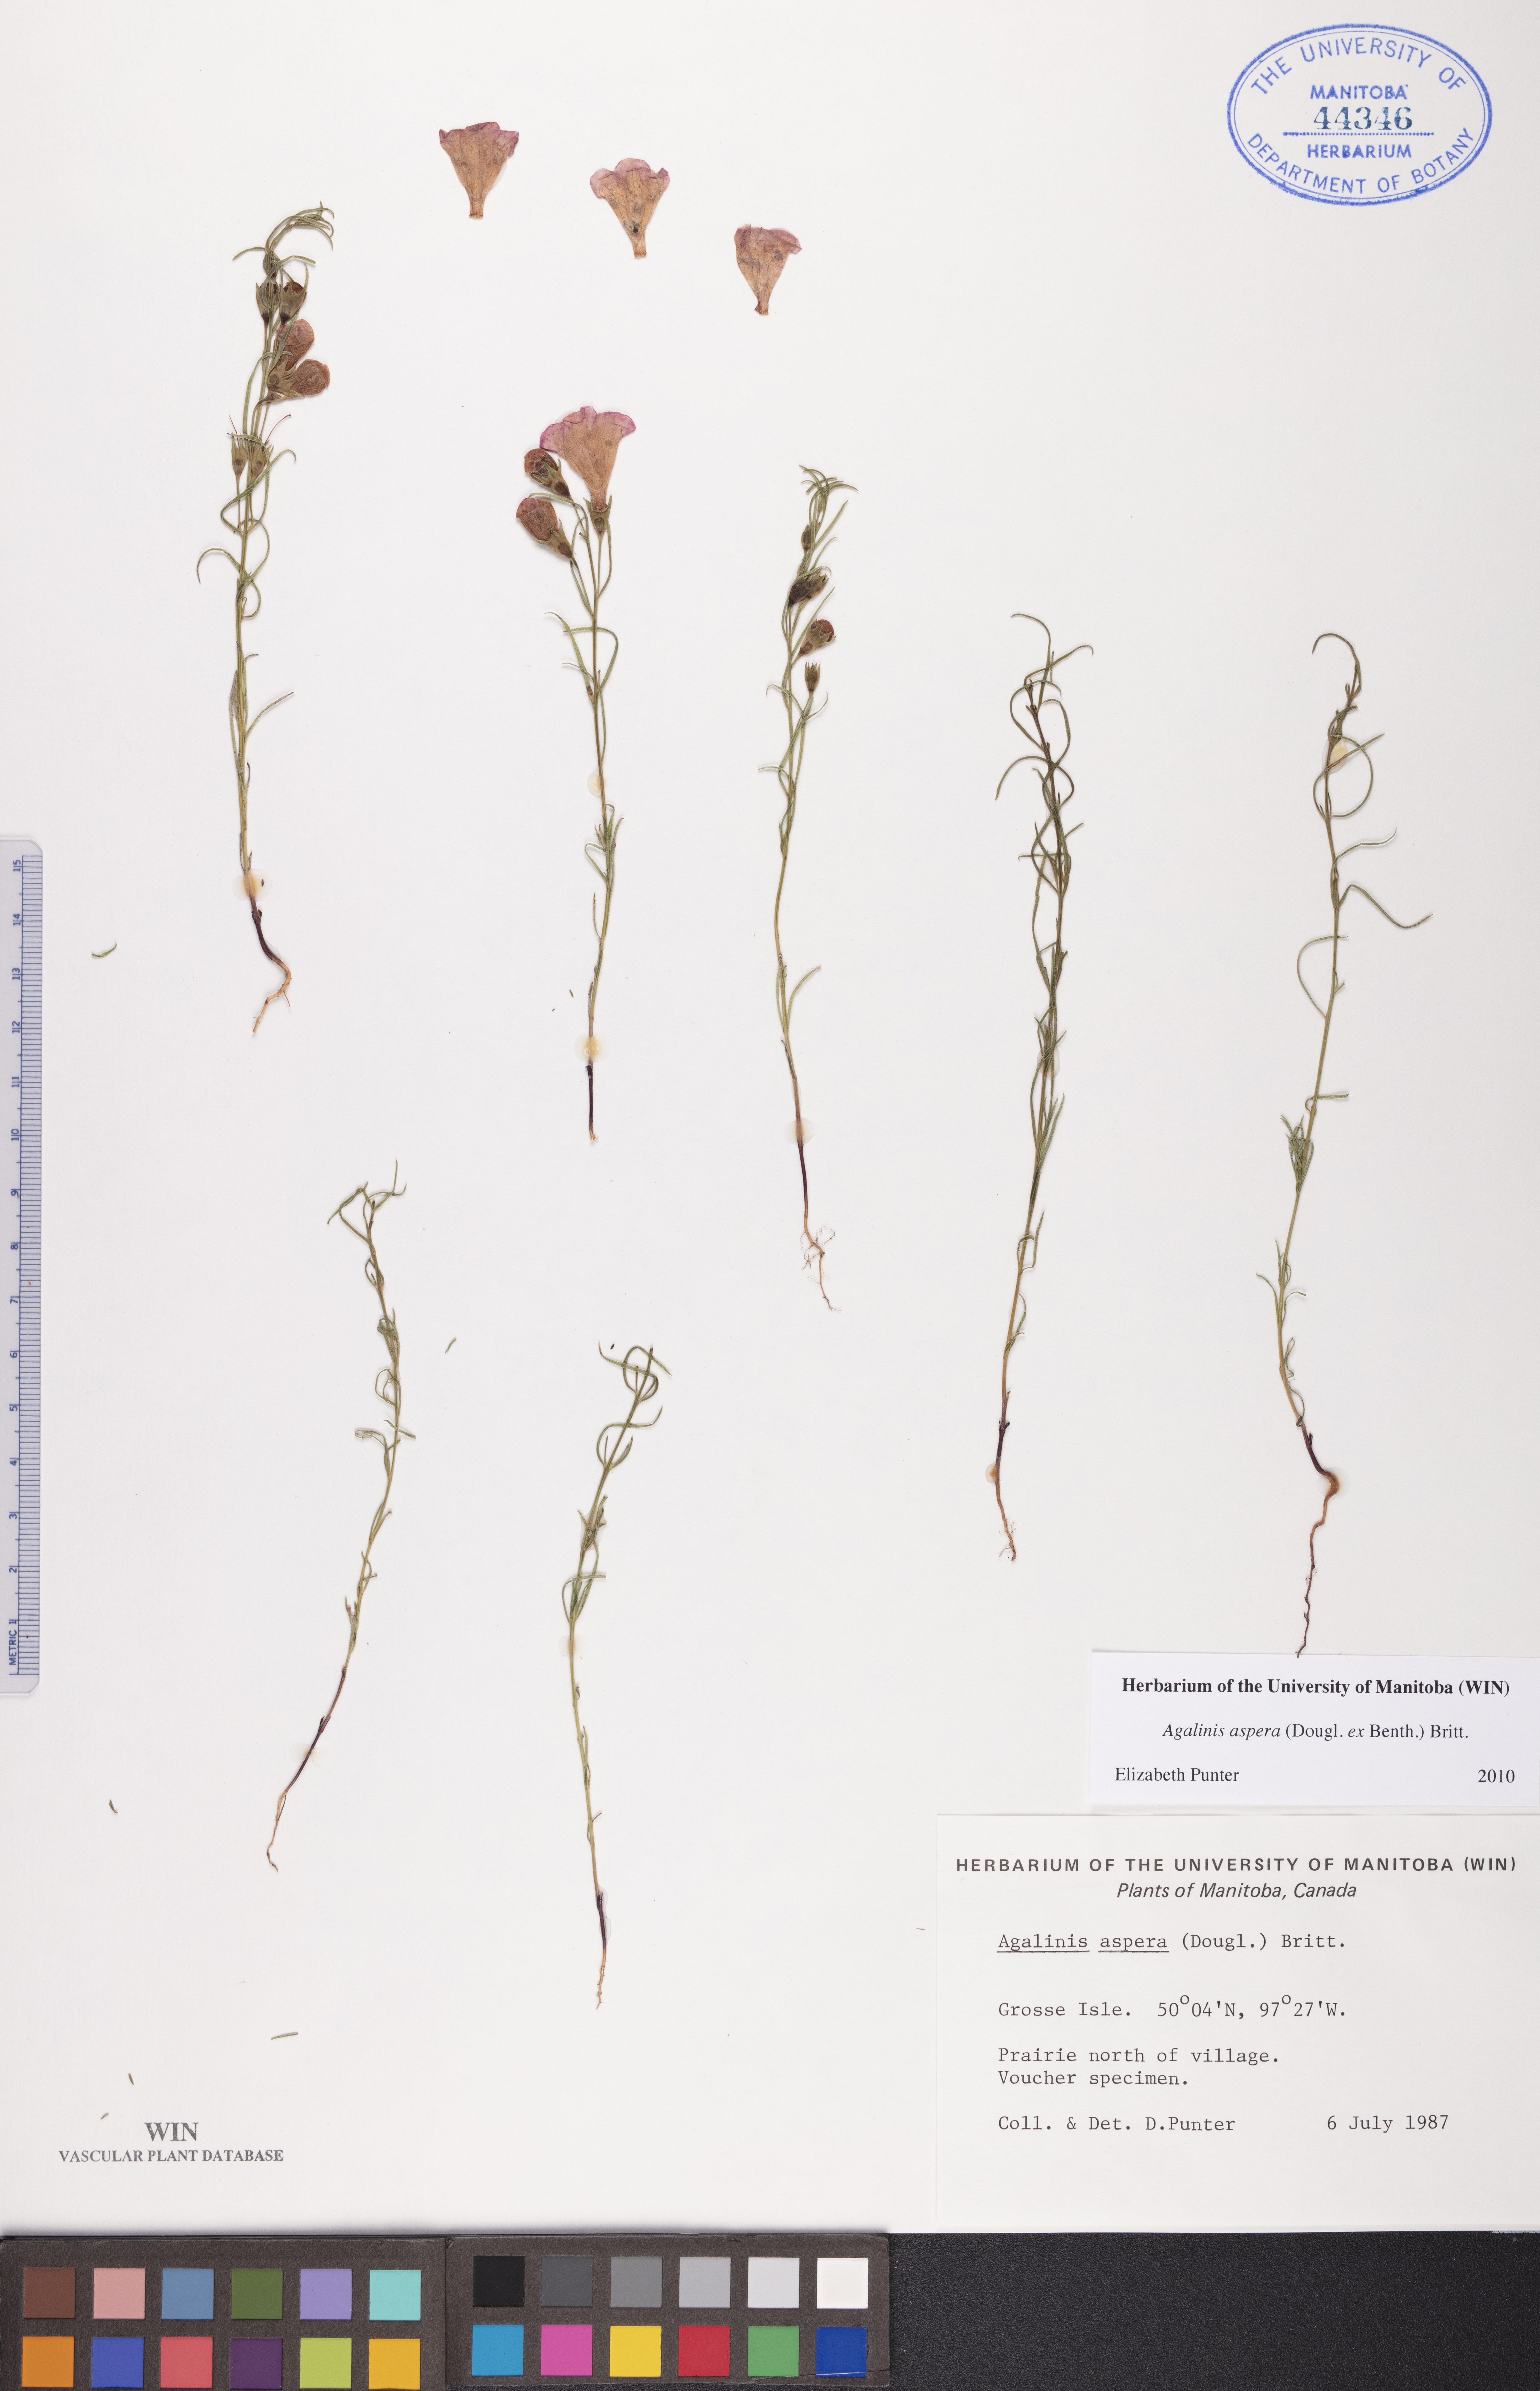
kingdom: Plantae
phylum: Tracheophyta
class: Magnoliopsida
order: Lamiales
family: Orobanchaceae
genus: Agalinis
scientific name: Agalinis aspera
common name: Rough agalinis
